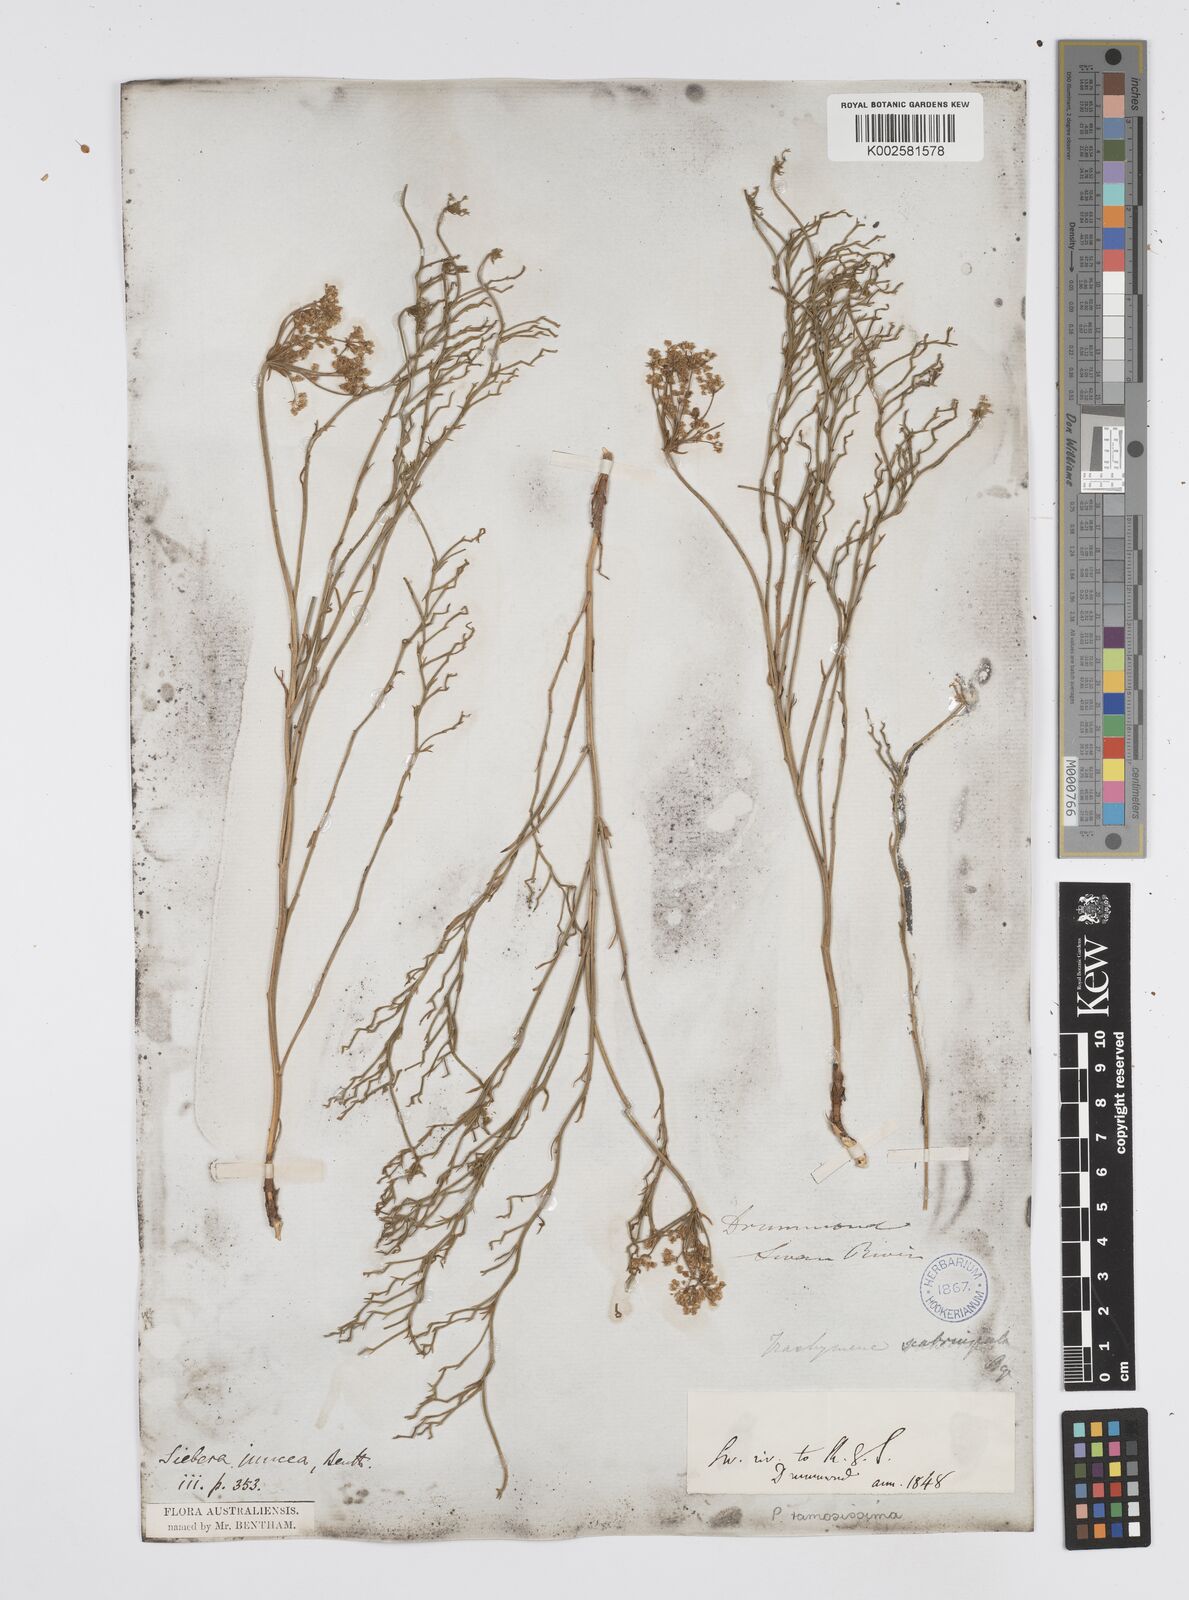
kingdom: Plantae
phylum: Tracheophyta
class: Magnoliopsida
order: Apiales
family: Apiaceae
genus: Platysace
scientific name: Platysace ramosissima
